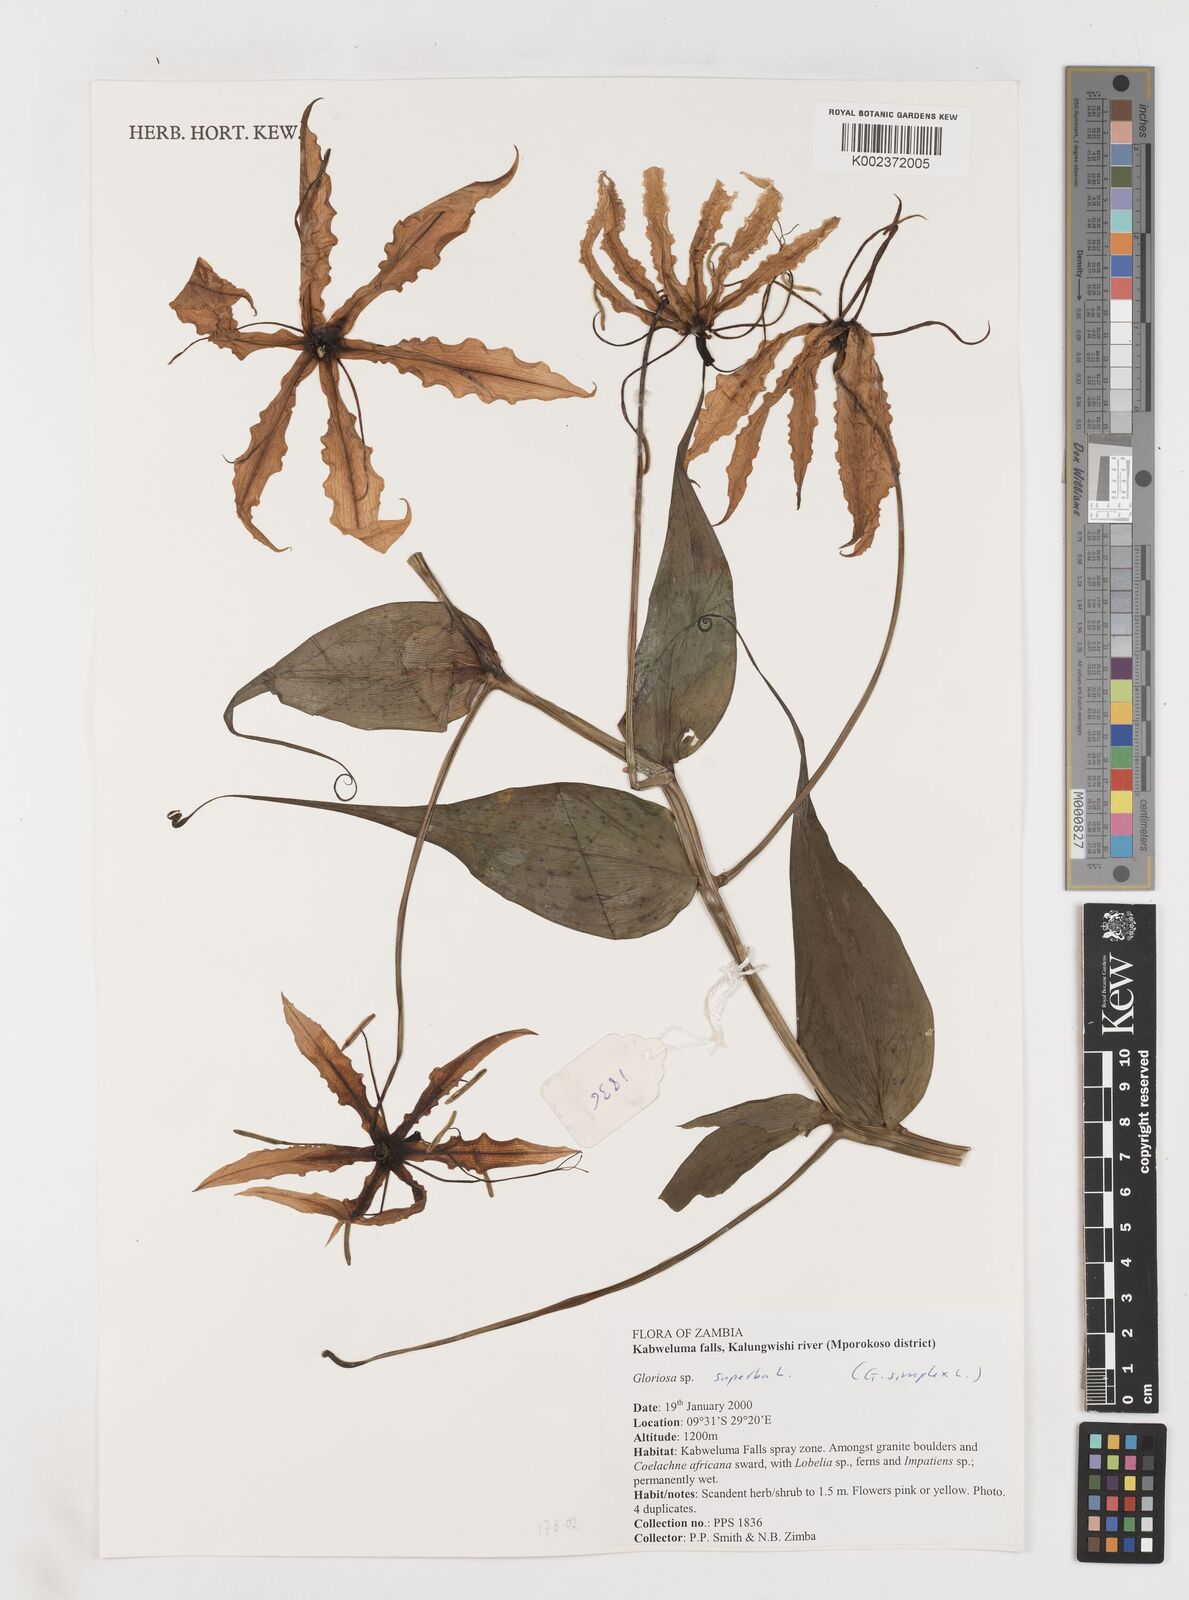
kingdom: Plantae
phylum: Tracheophyta
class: Liliopsida
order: Liliales
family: Colchicaceae
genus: Gloriosa
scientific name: Gloriosa superba
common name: Flame lily
